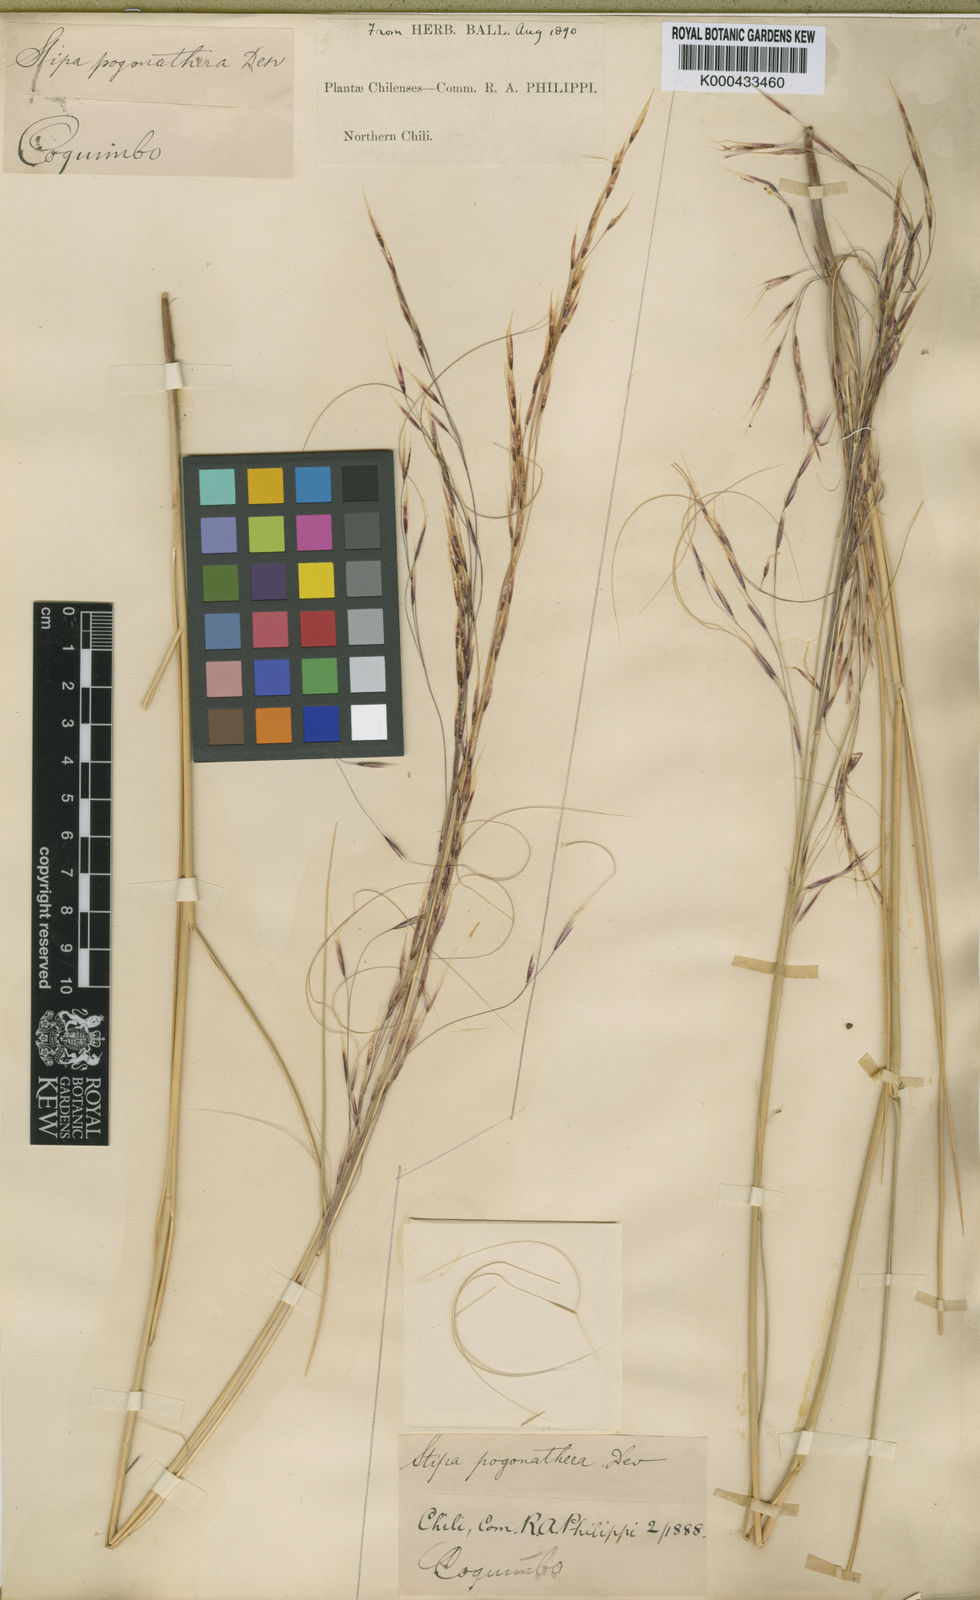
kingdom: Plantae
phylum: Tracheophyta
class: Liliopsida
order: Poales
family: Poaceae
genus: Stipa
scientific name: Stipa
